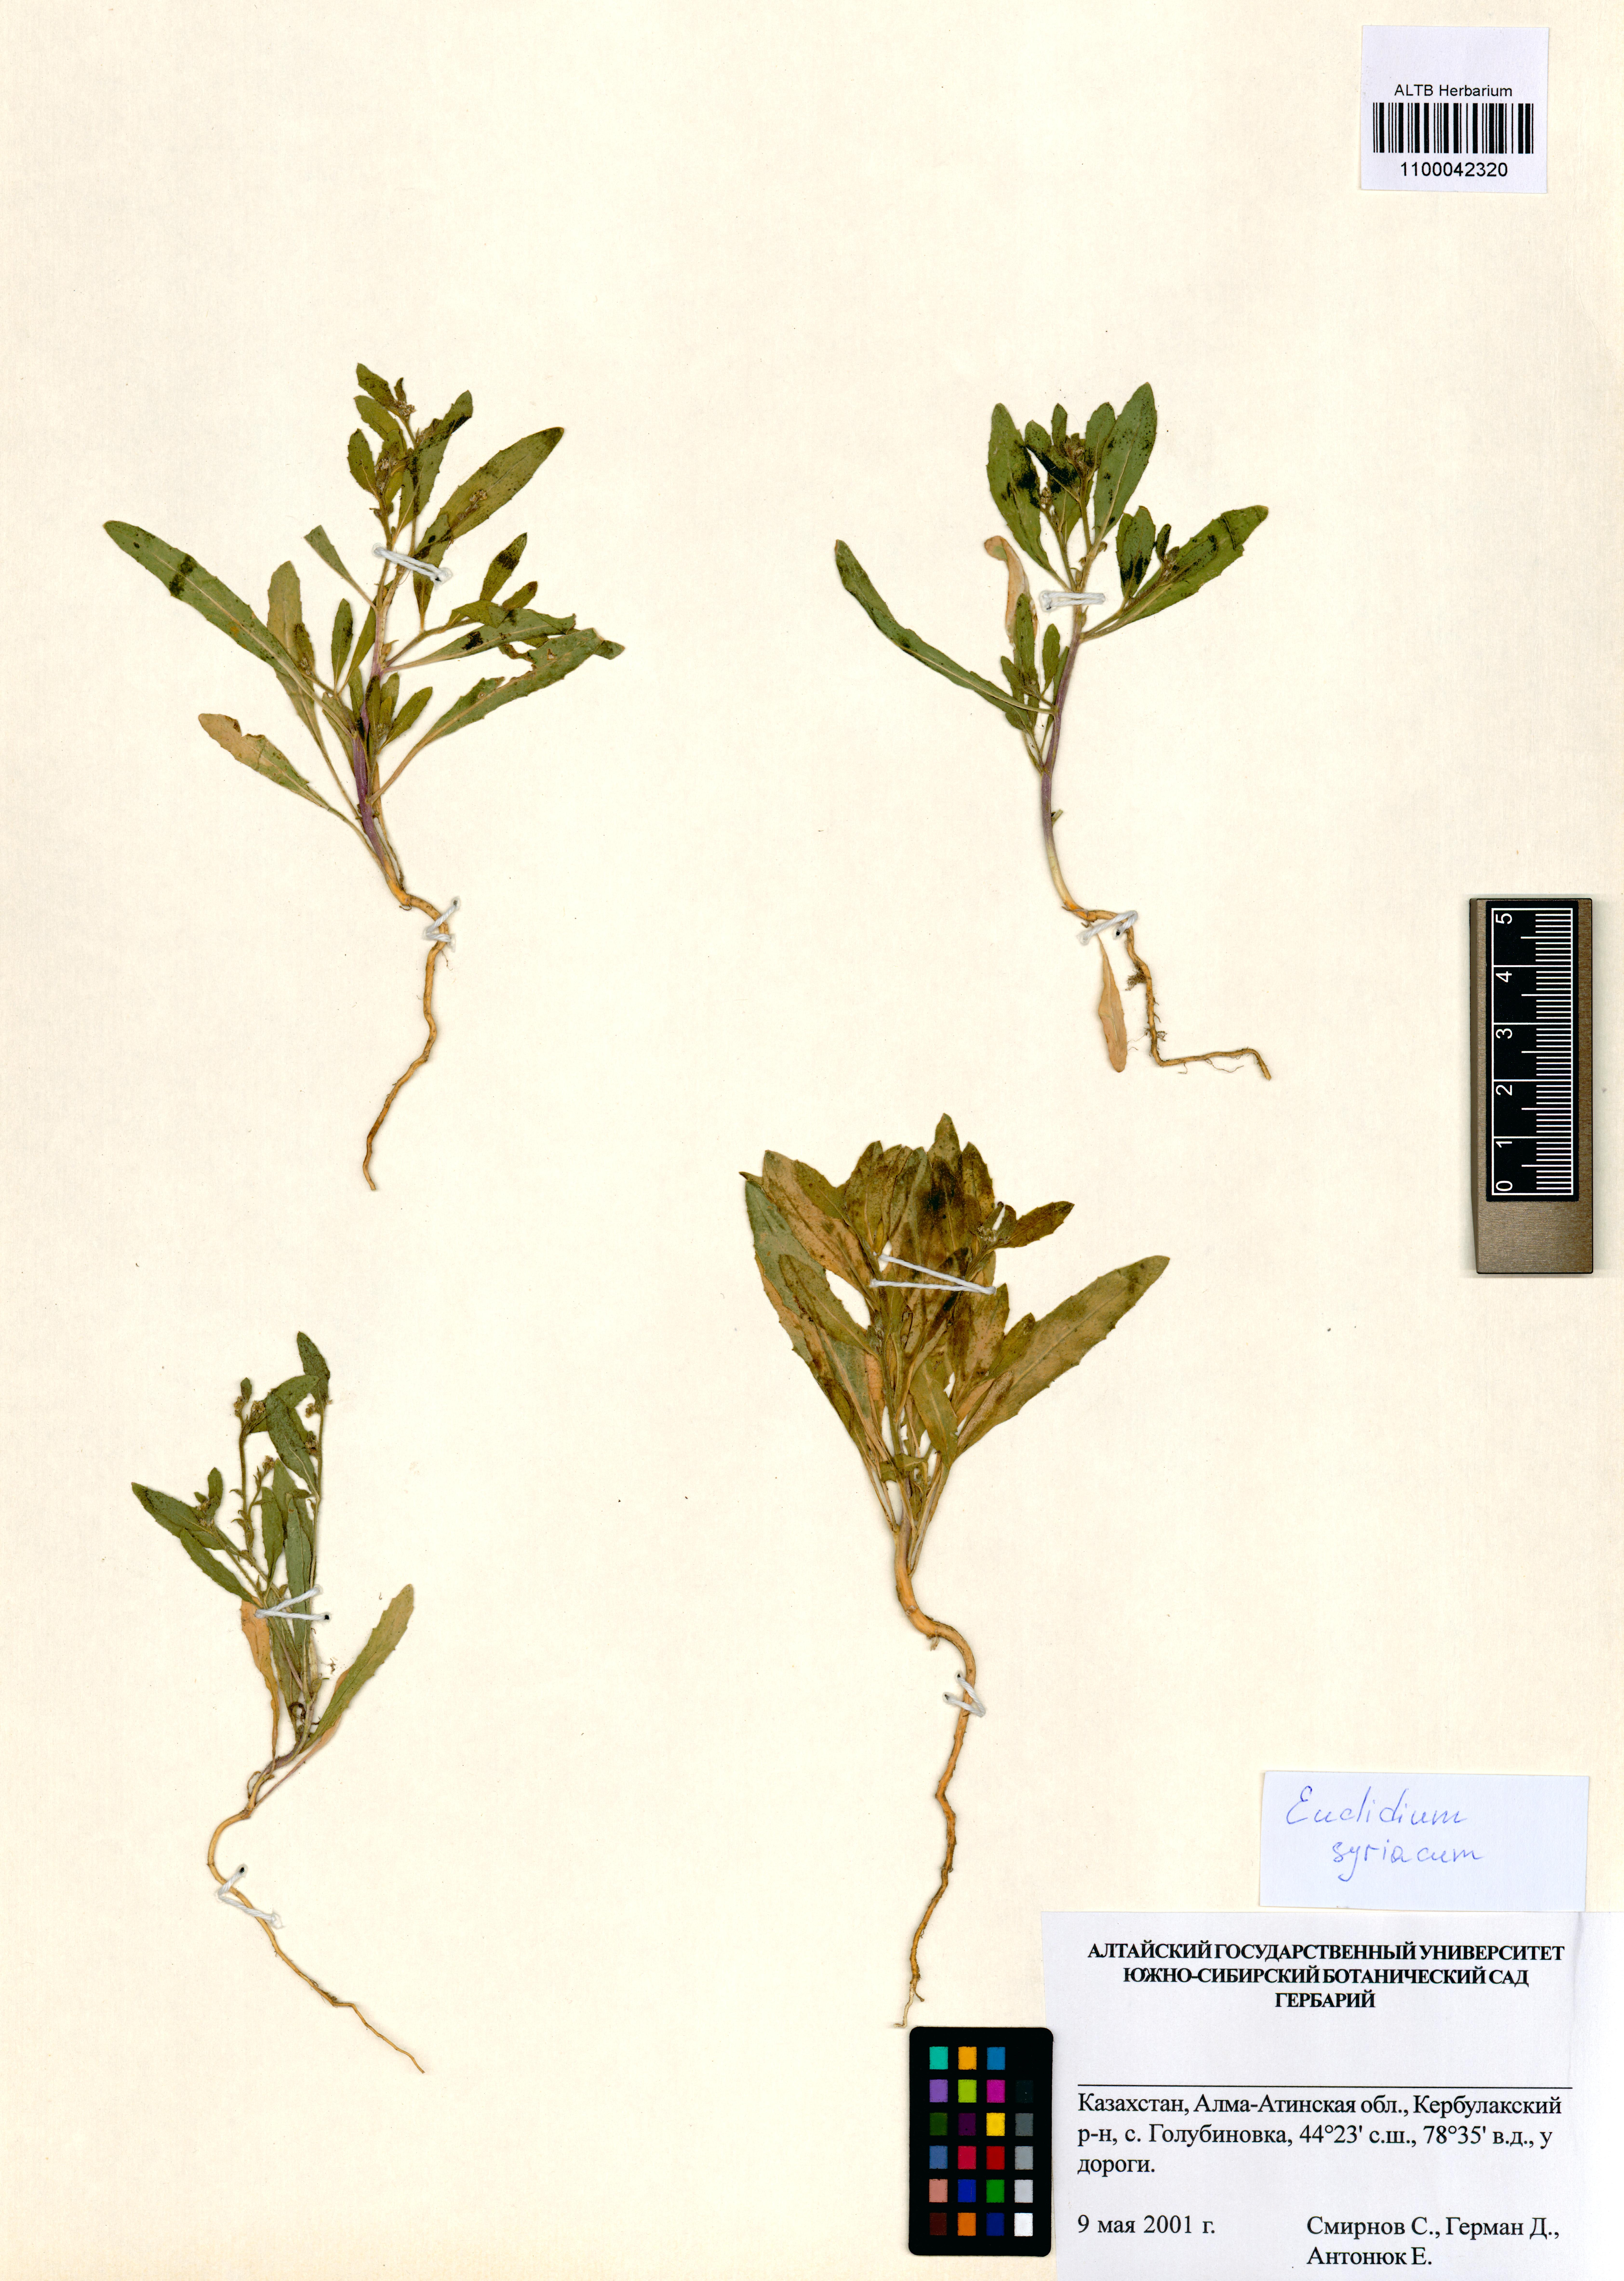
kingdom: Plantae
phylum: Tracheophyta
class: Magnoliopsida
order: Brassicales
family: Brassicaceae
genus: Euclidium
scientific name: Euclidium syriacum
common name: Syrian mustard
